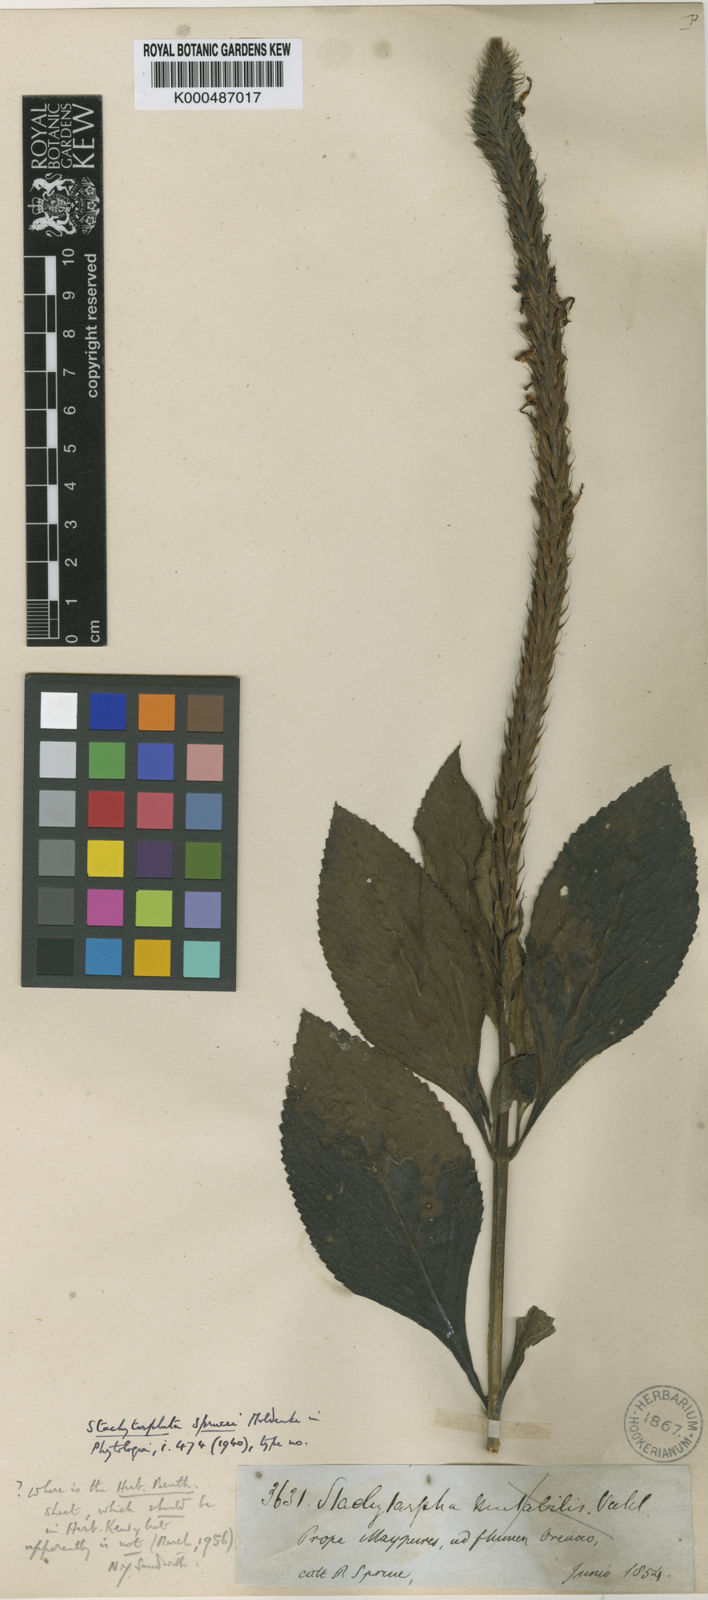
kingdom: Plantae
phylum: Tracheophyta
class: Magnoliopsida
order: Lamiales
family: Verbenaceae
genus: Stachytarpheta
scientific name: Stachytarpheta sprucei
